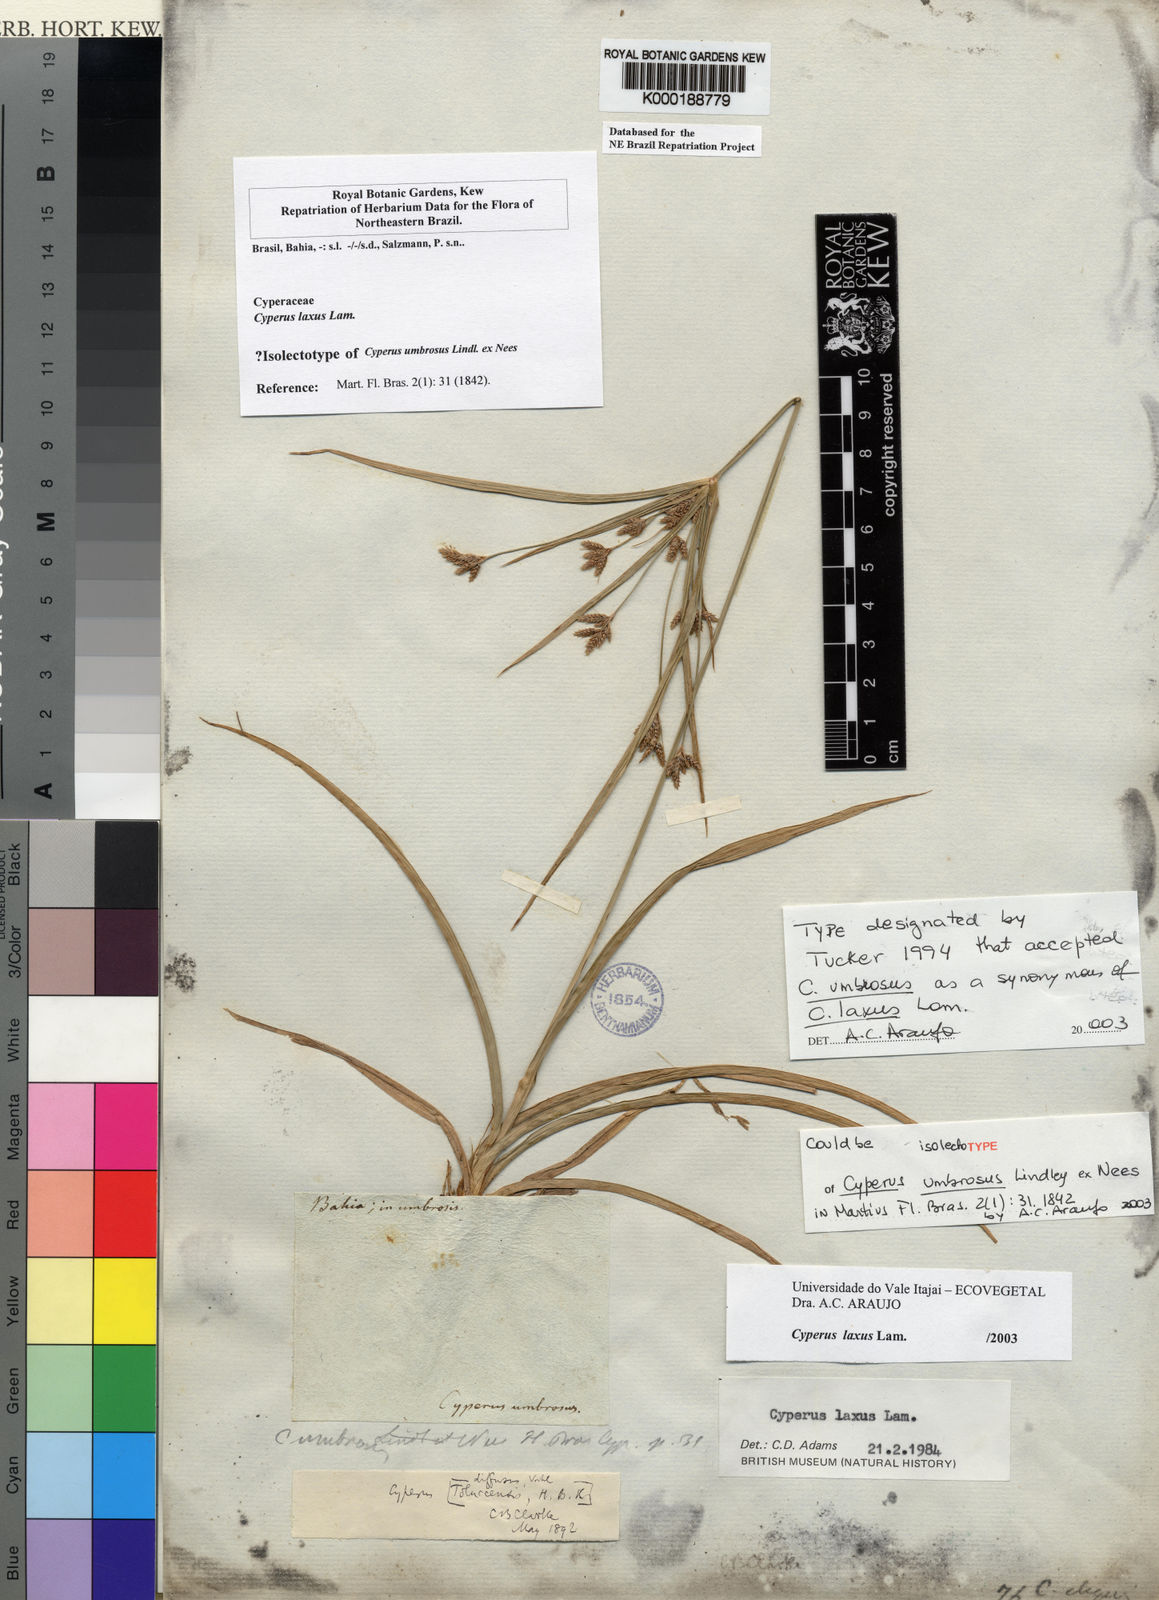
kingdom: Plantae
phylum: Tracheophyta
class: Liliopsida
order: Poales
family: Cyperaceae
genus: Cyperus
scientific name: Cyperus laxus
